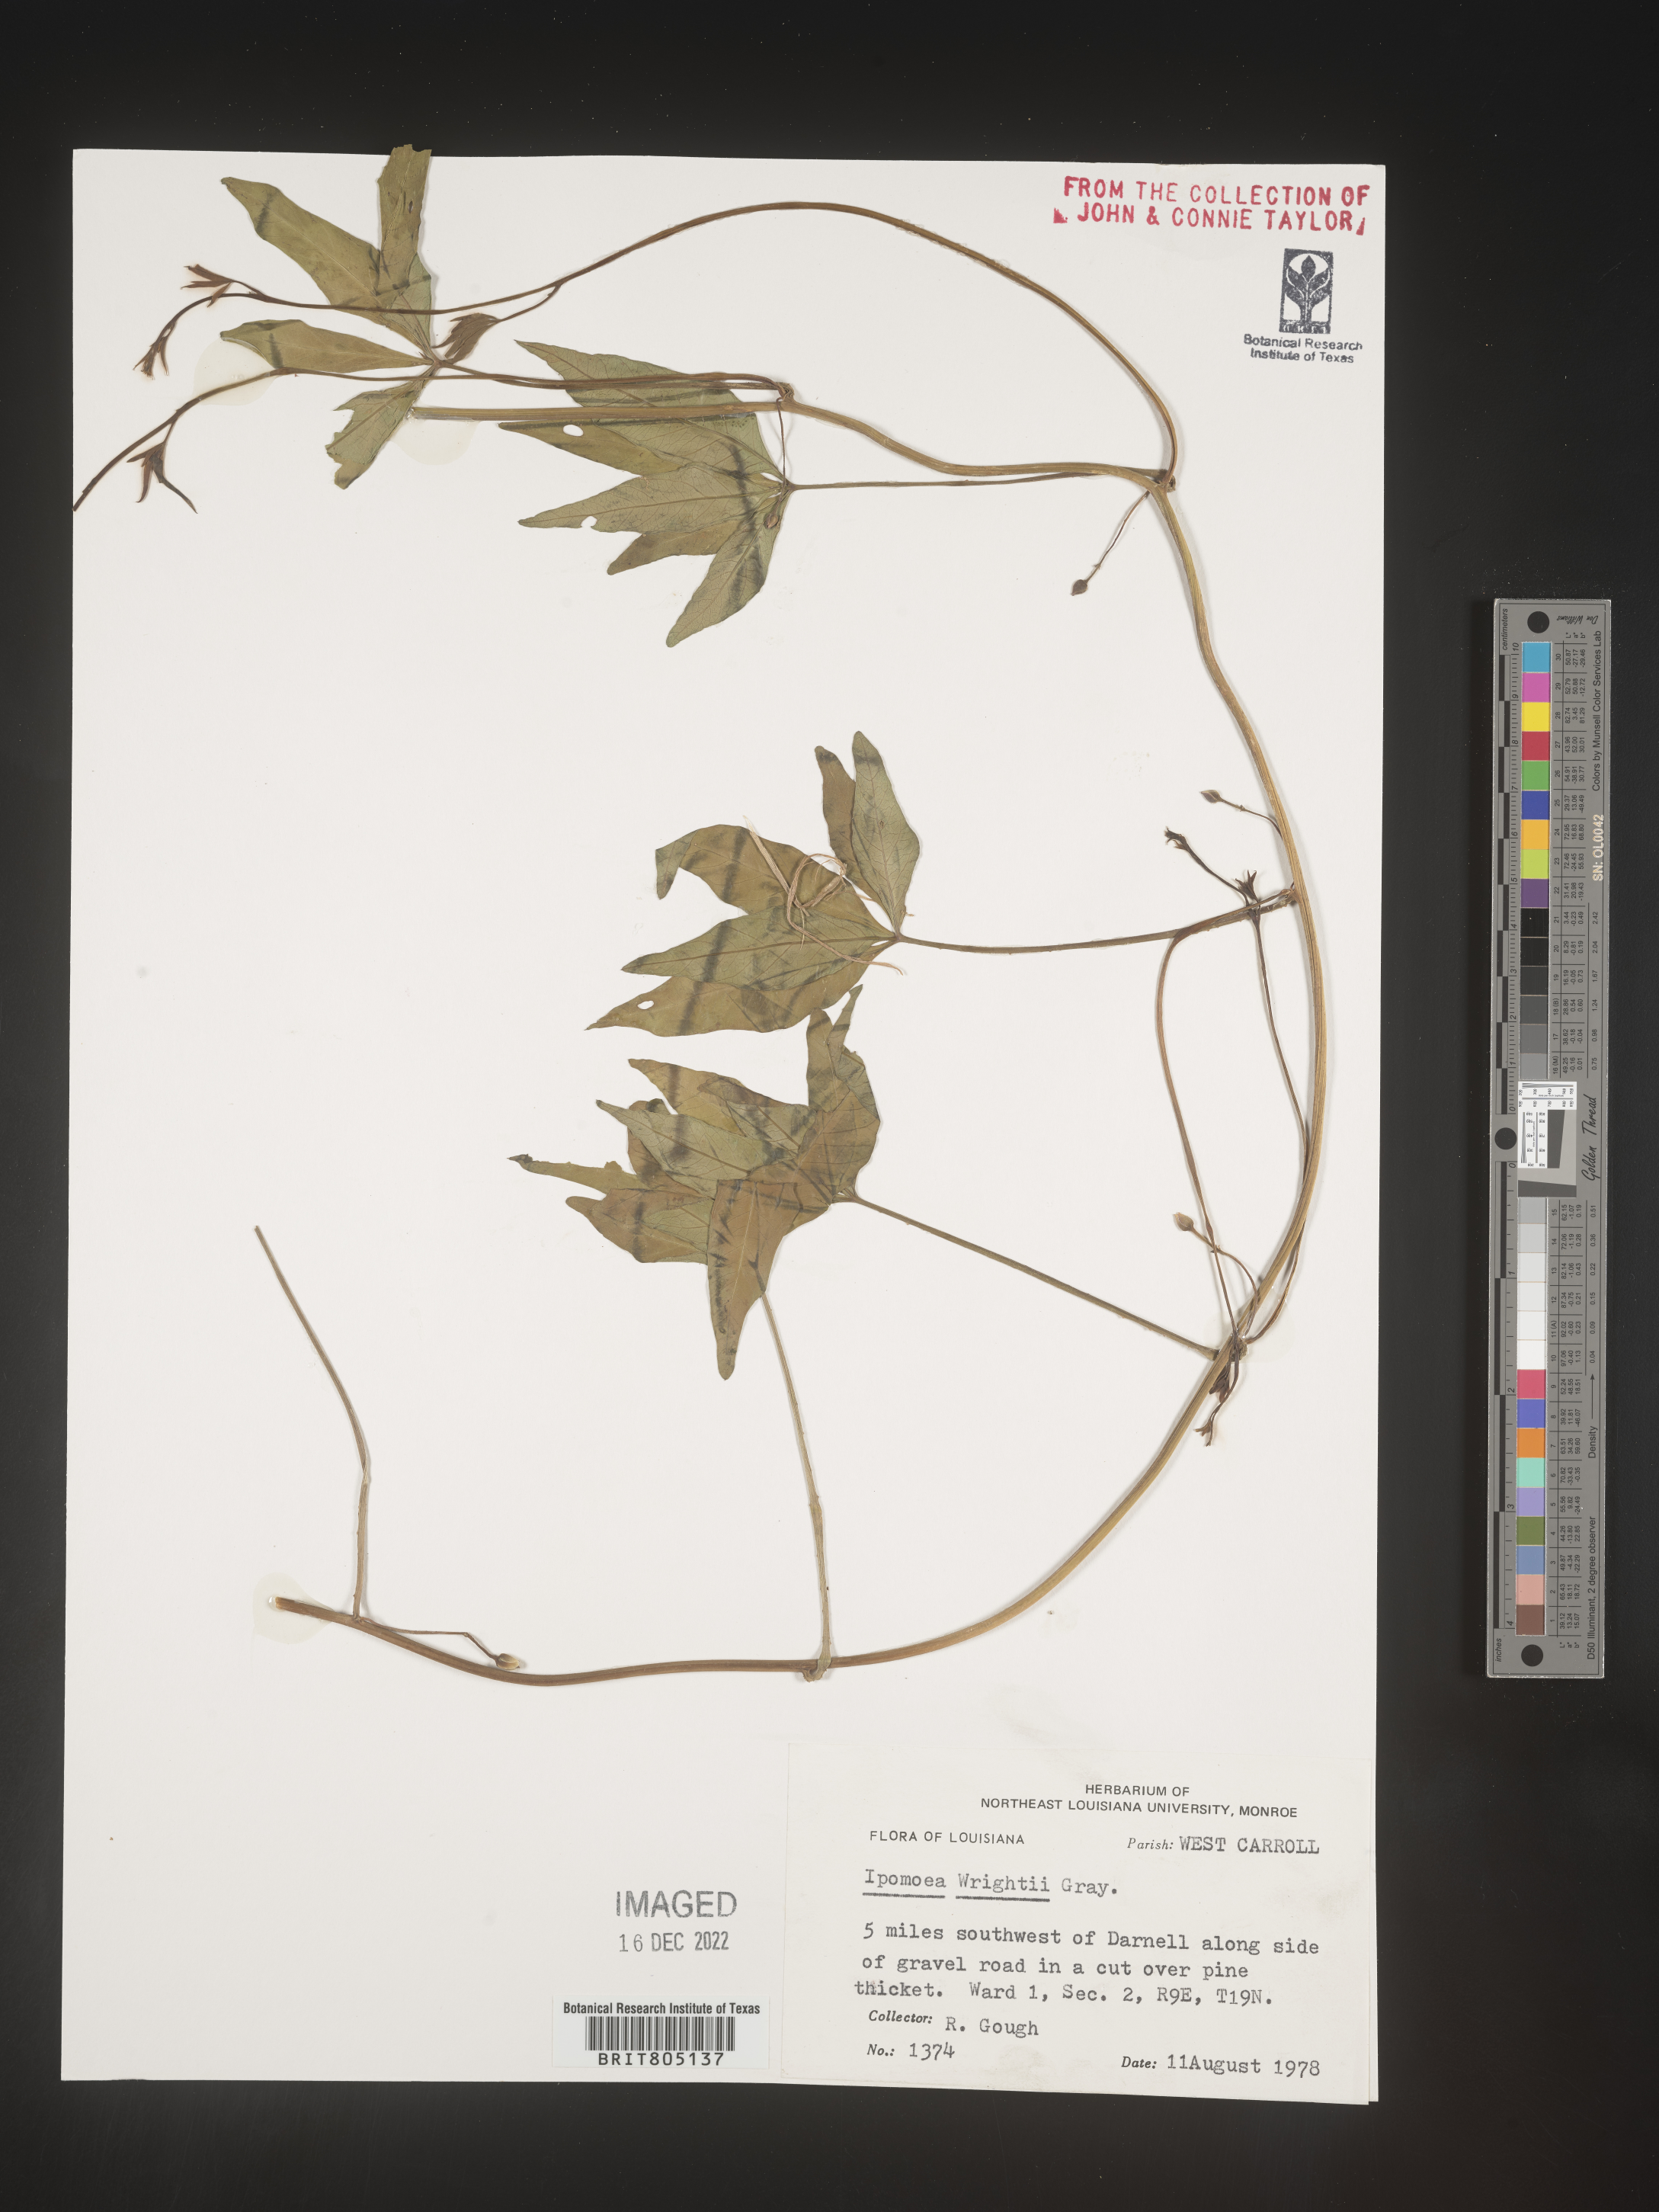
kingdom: Plantae
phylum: Tracheophyta
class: Magnoliopsida
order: Solanales
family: Convolvulaceae
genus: Ipomoea
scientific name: Ipomoea heptaphylla
